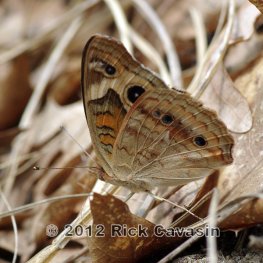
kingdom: Animalia
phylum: Arthropoda
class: Insecta
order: Lepidoptera
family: Nymphalidae
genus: Junonia
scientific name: Junonia coenia
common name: Common Buckeye
